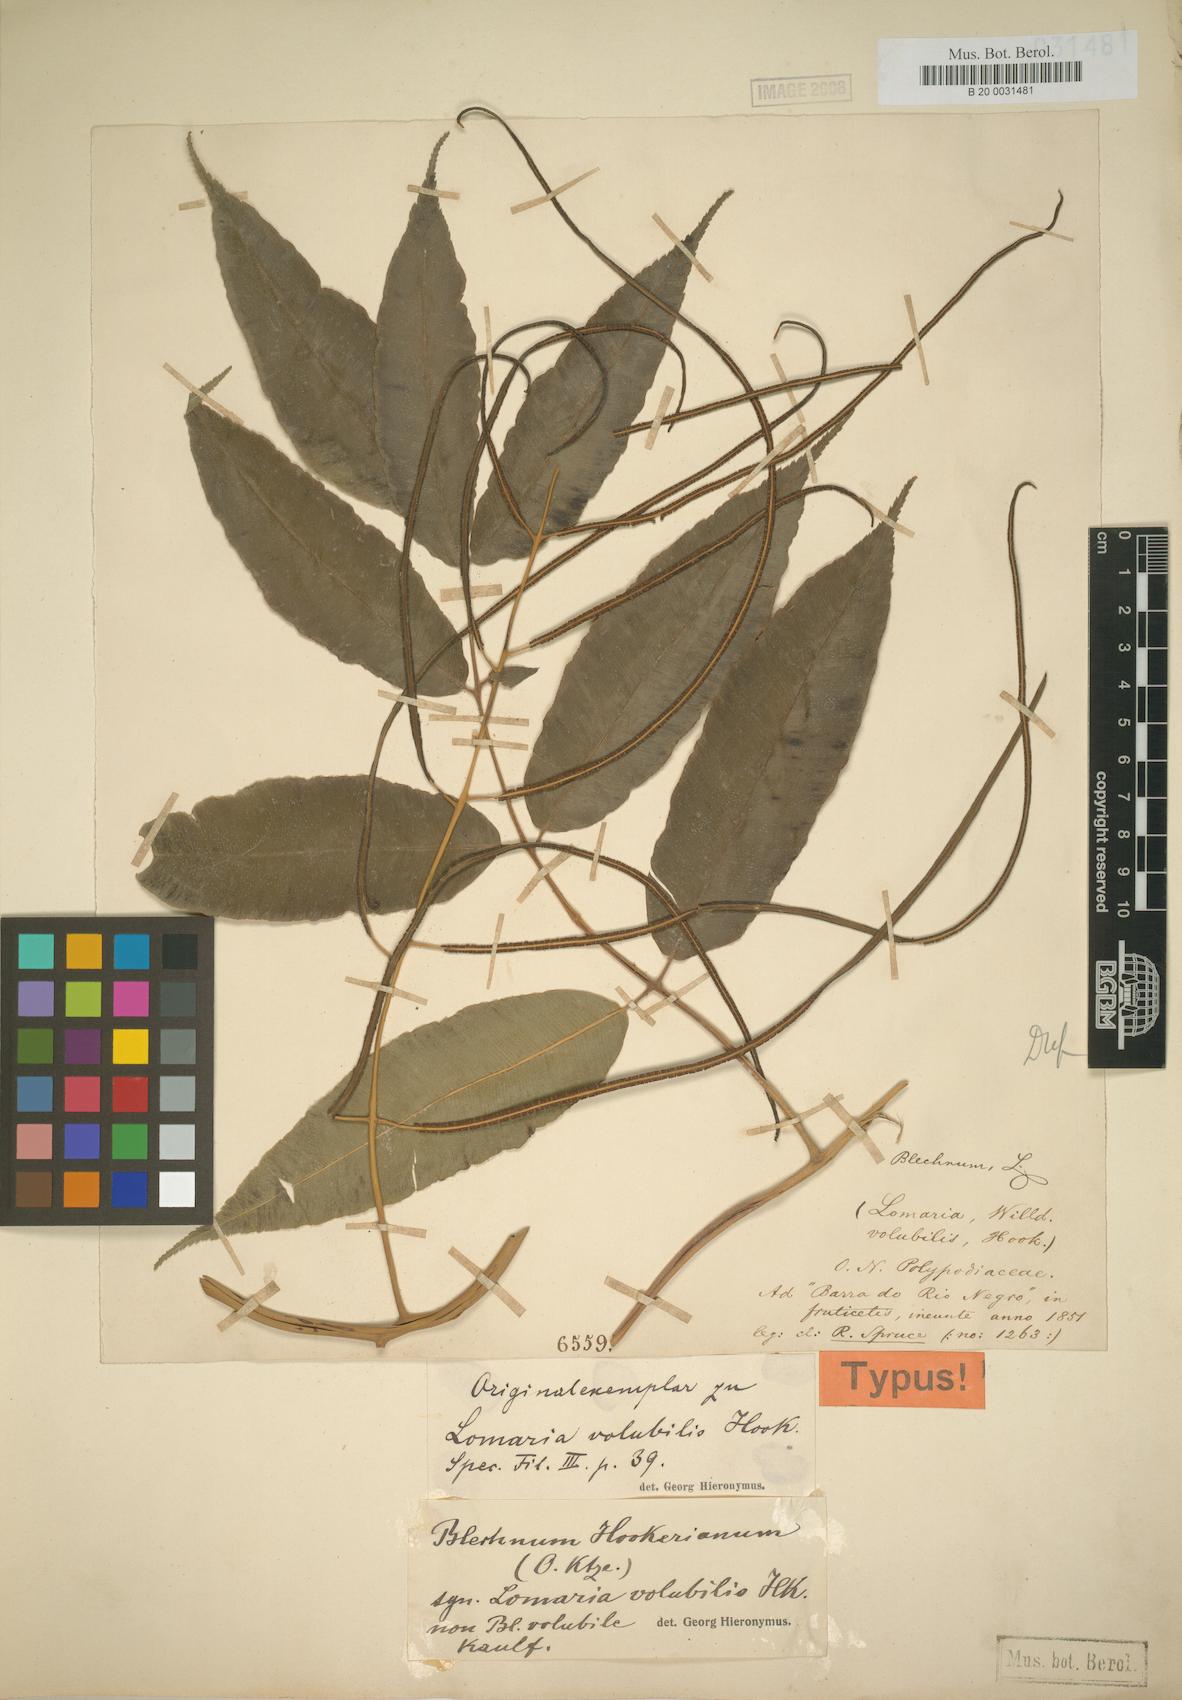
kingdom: Plantae
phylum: Tracheophyta
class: Polypodiopsida
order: Polypodiales
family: Blechnaceae
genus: Salpichlaena
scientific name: Salpichlaena hookeriana
